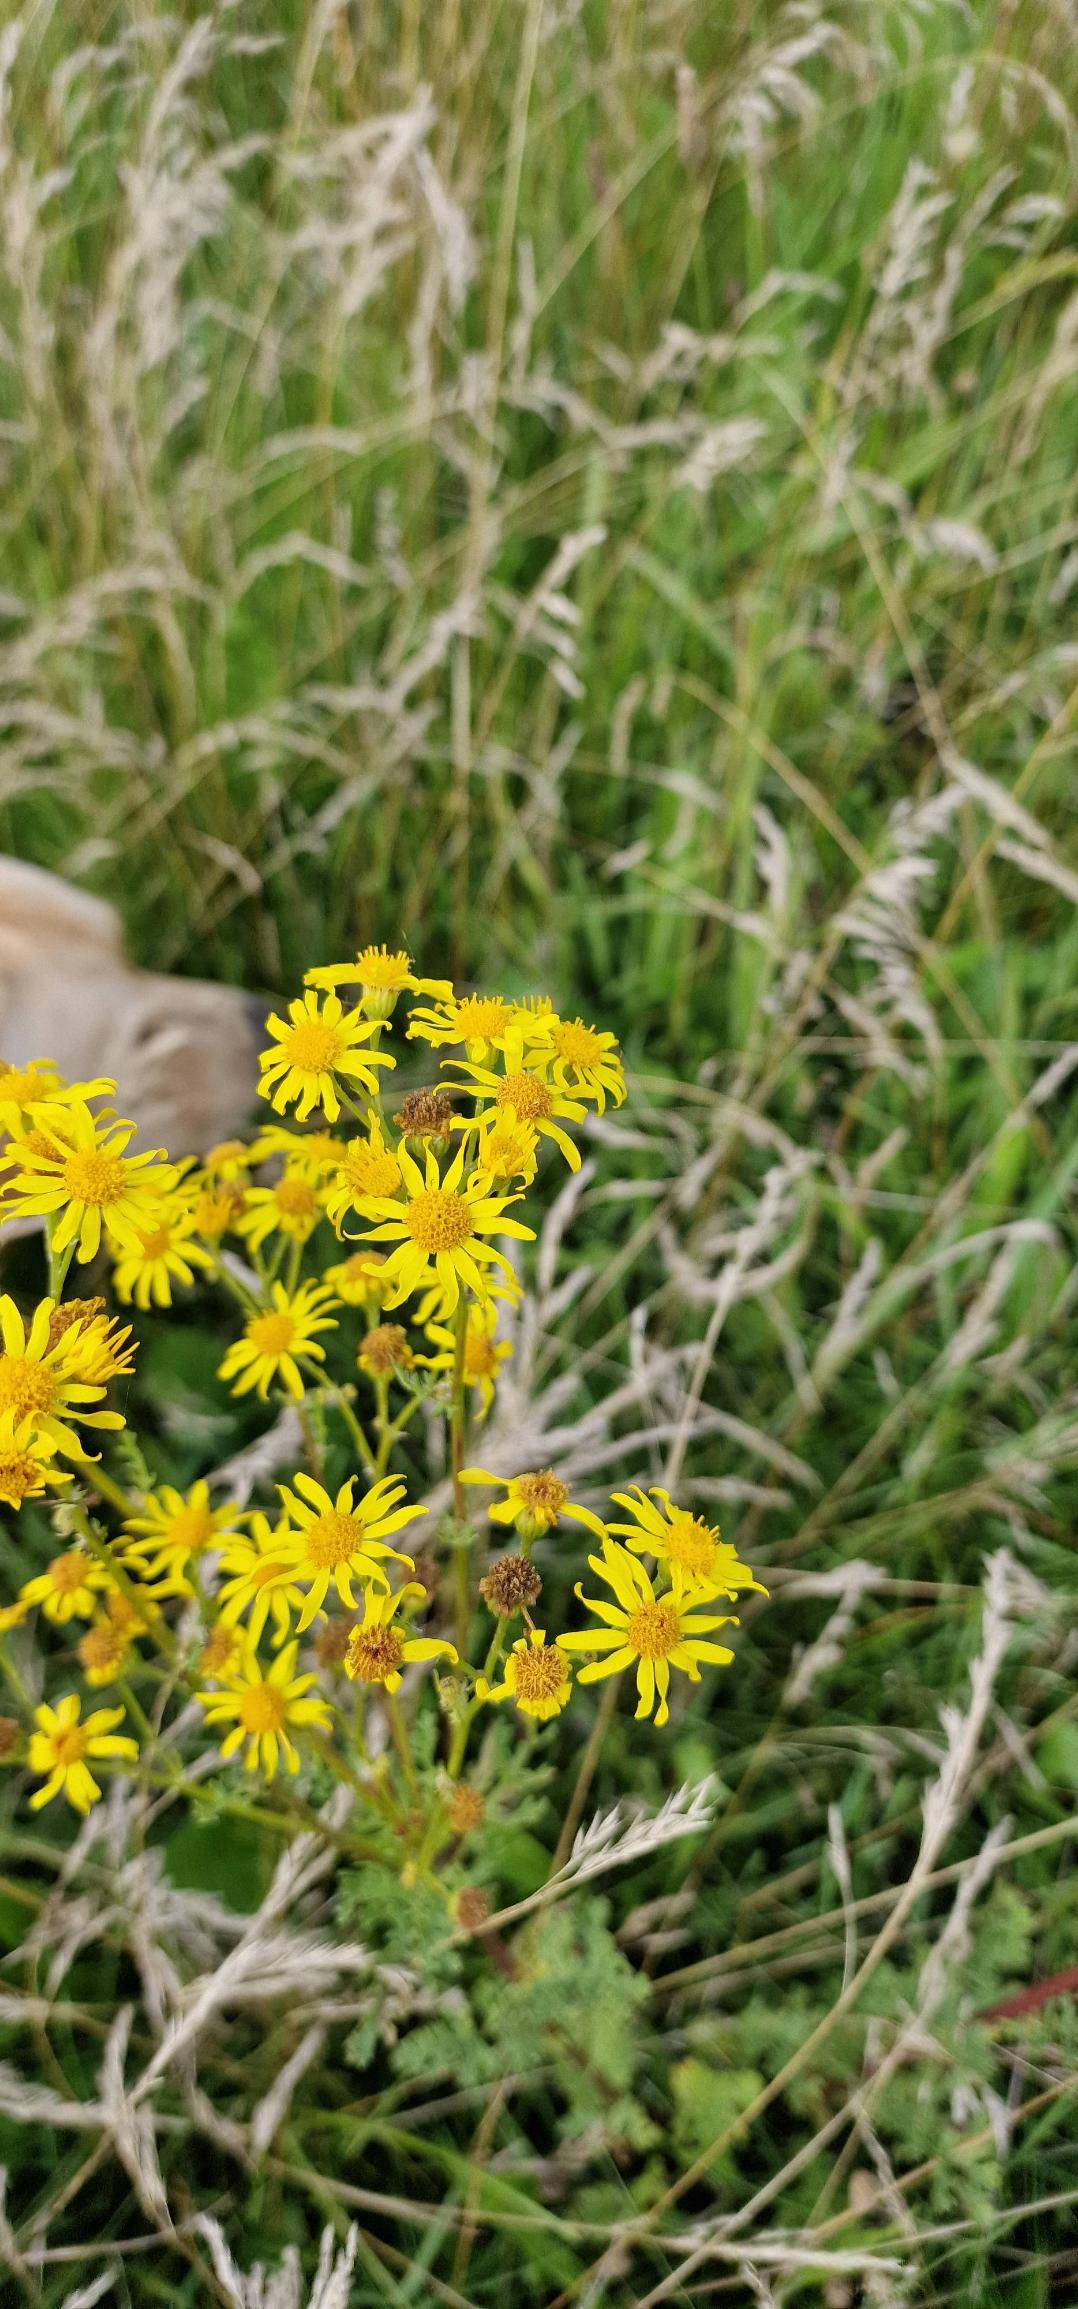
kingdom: Plantae
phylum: Tracheophyta
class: Magnoliopsida
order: Asterales
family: Asteraceae
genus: Jacobaea
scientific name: Jacobaea vulgaris
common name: Eng-brandbæger
